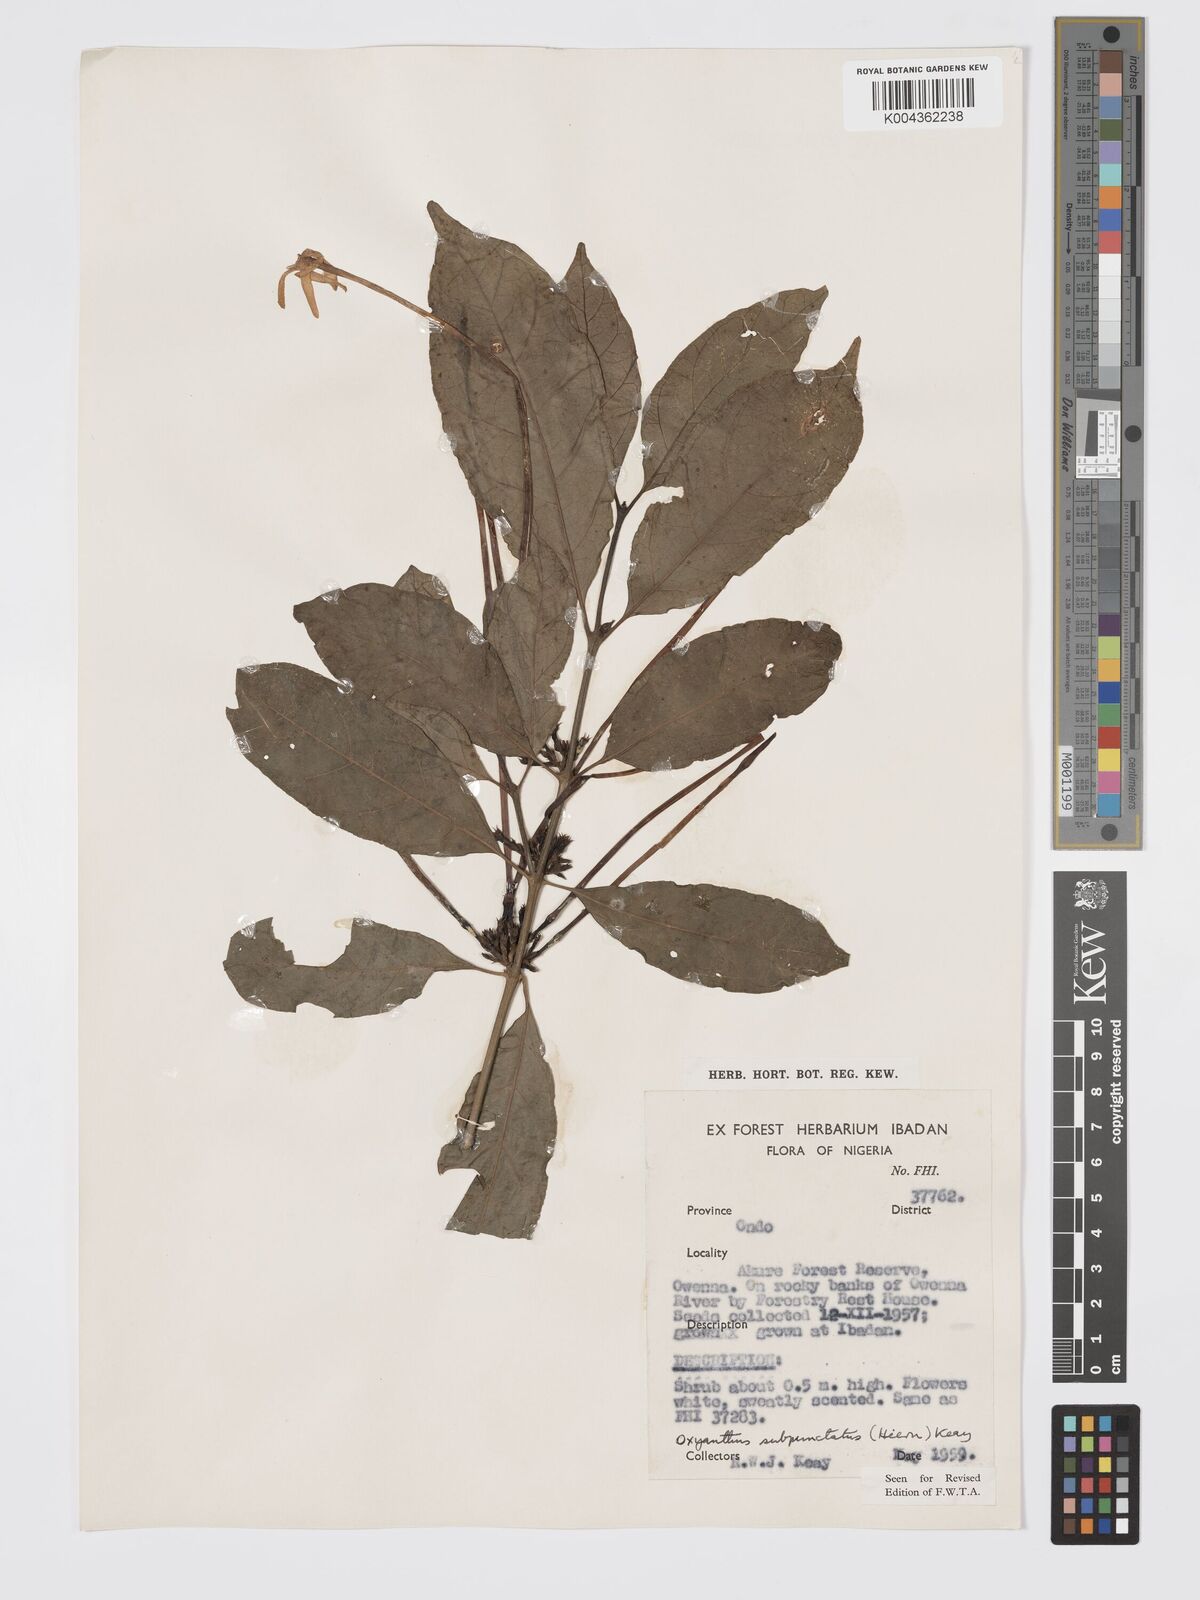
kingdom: Plantae
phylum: Tracheophyta
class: Magnoliopsida
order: Gentianales
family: Rubiaceae
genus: Oxyanthus
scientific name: Oxyanthus subpunctatus
